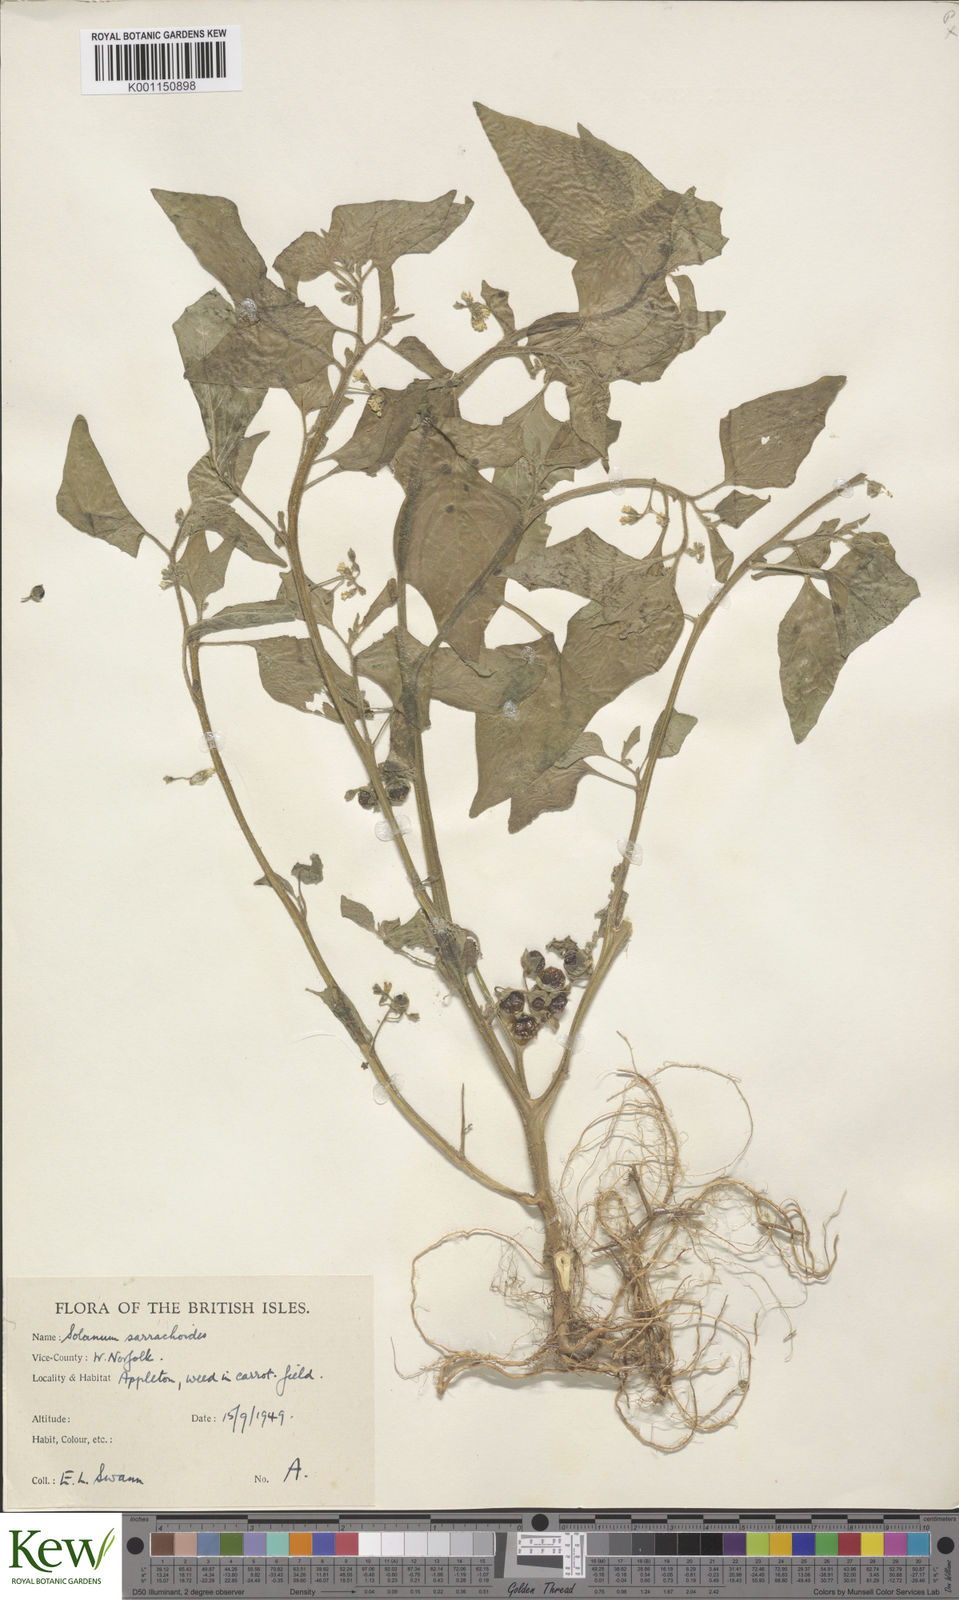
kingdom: Plantae
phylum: Tracheophyta
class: Magnoliopsida
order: Solanales
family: Solanaceae
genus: Solanum
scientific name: Solanum nitidibaccatum
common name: Hairy nightshade
